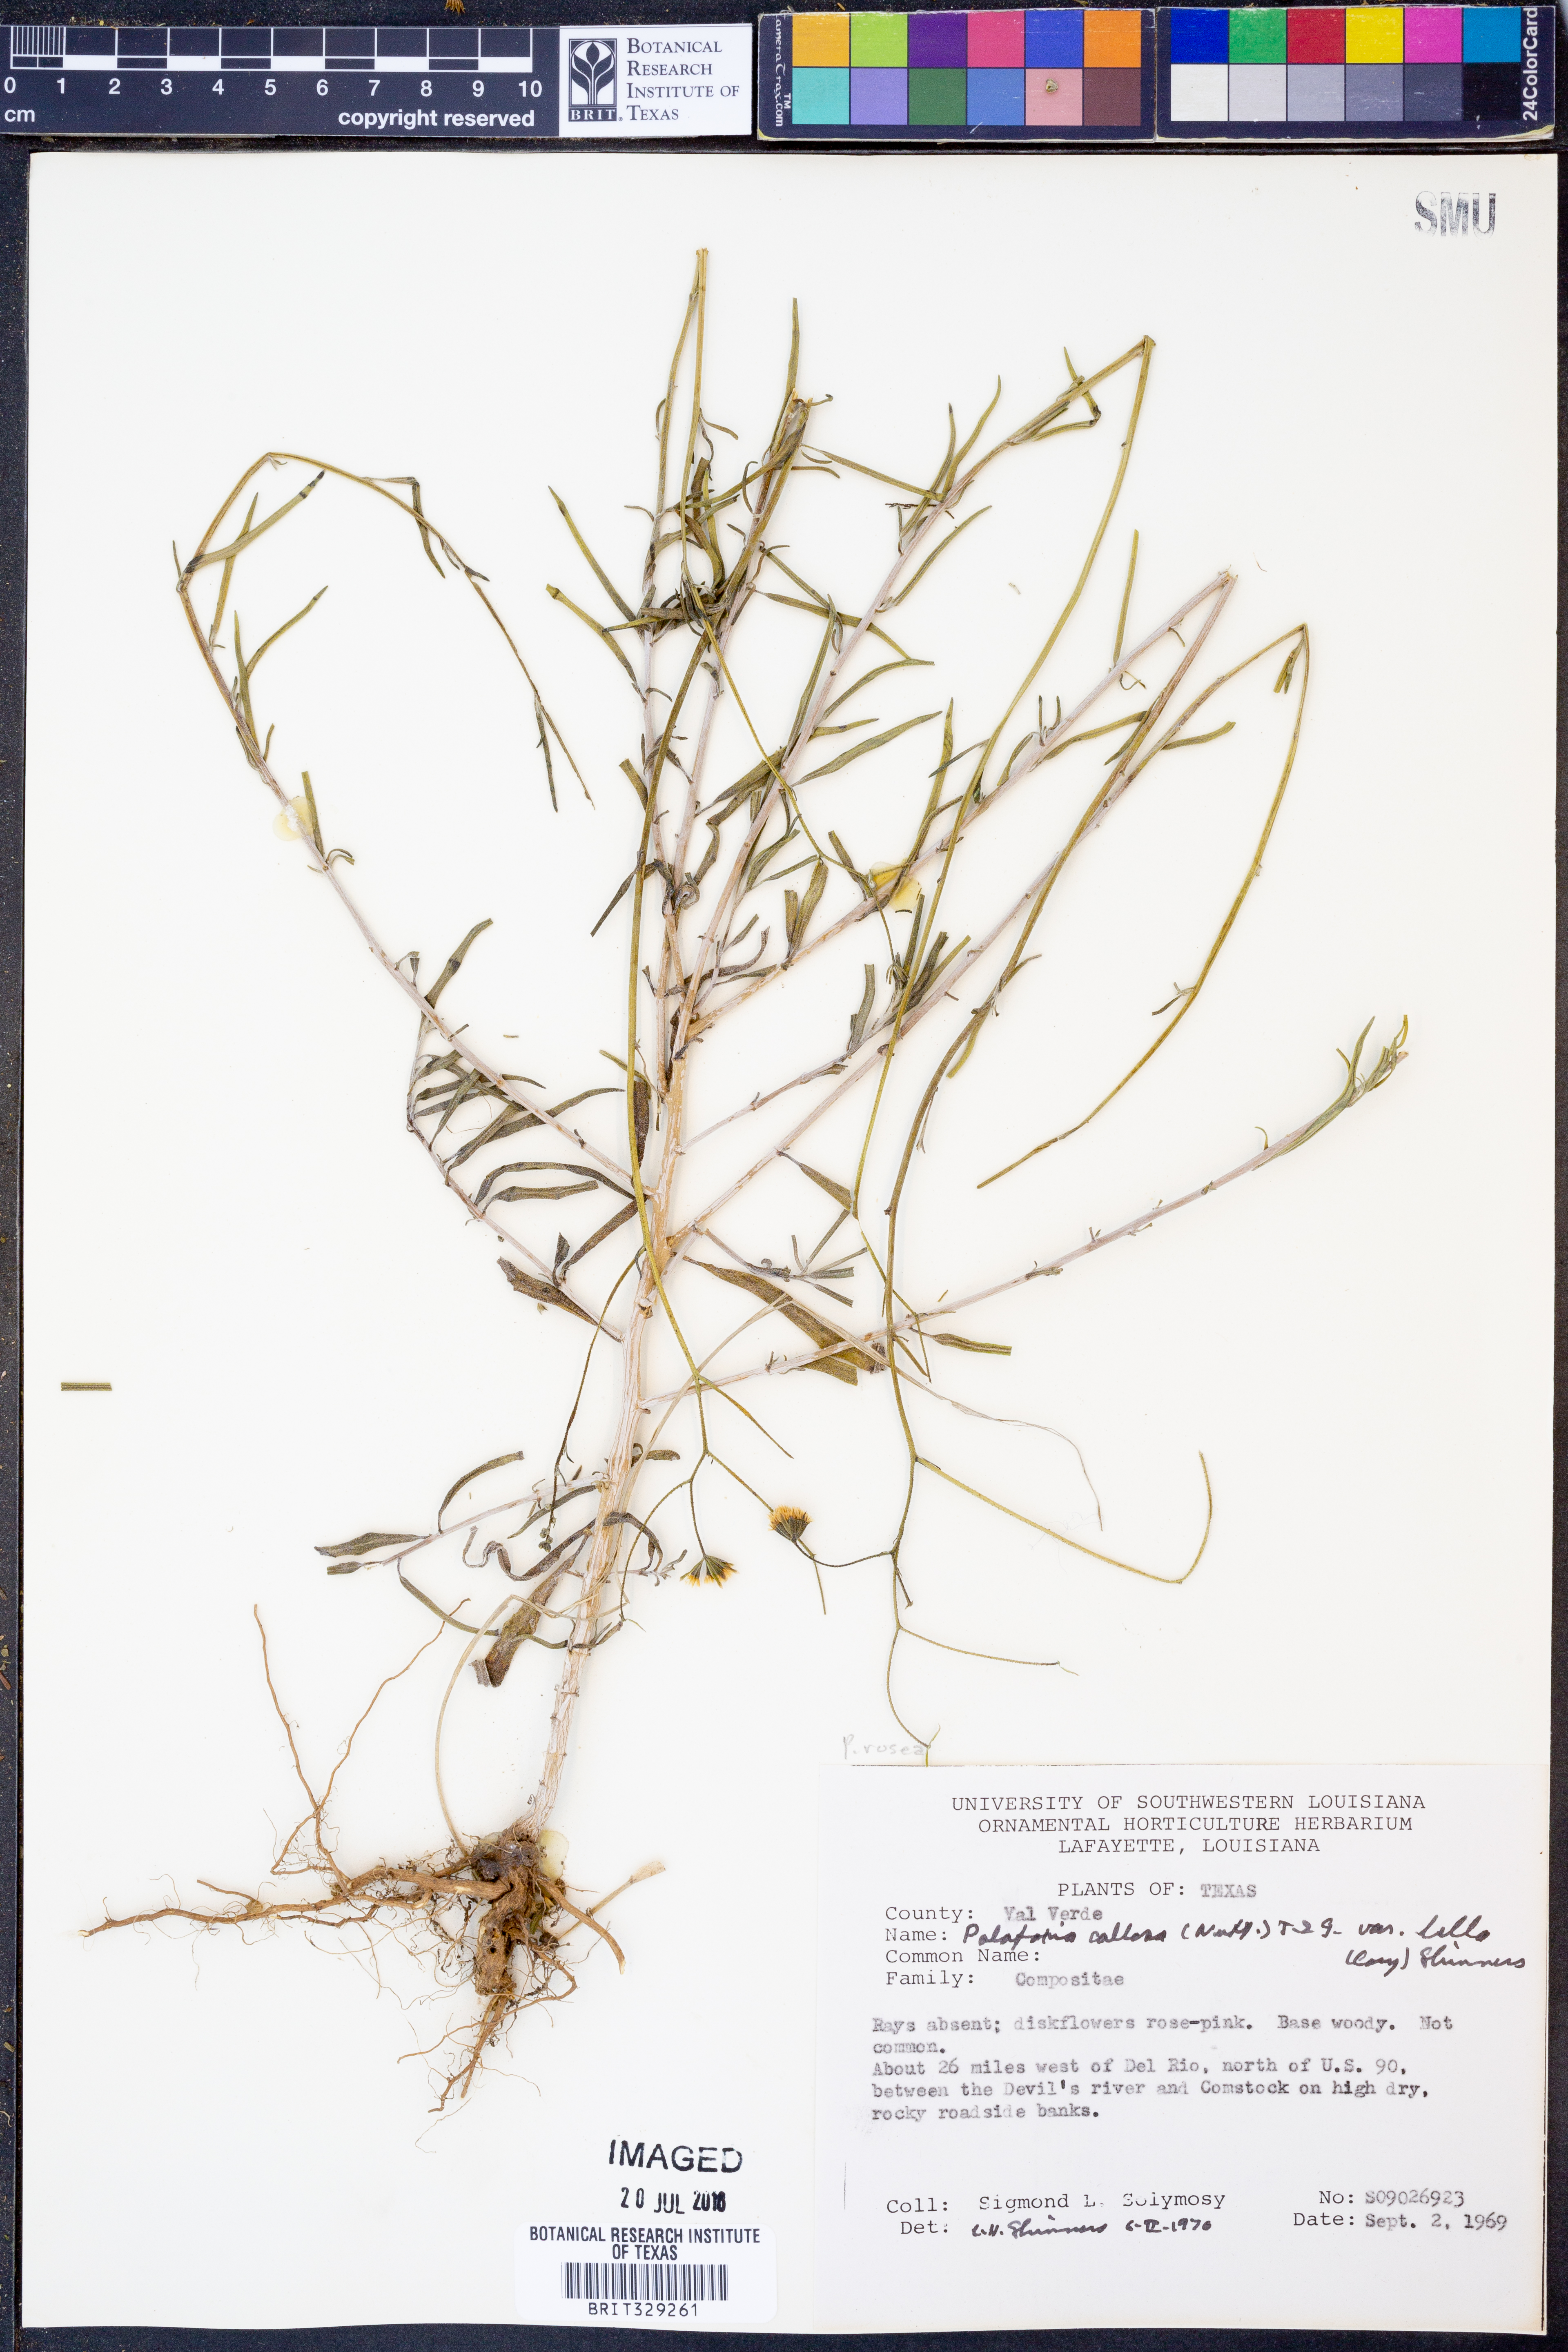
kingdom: Plantae
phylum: Tracheophyta
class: Magnoliopsida
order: Asterales
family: Asteraceae
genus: Palafoxia
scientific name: Palafoxia callosa
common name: Small palafox
